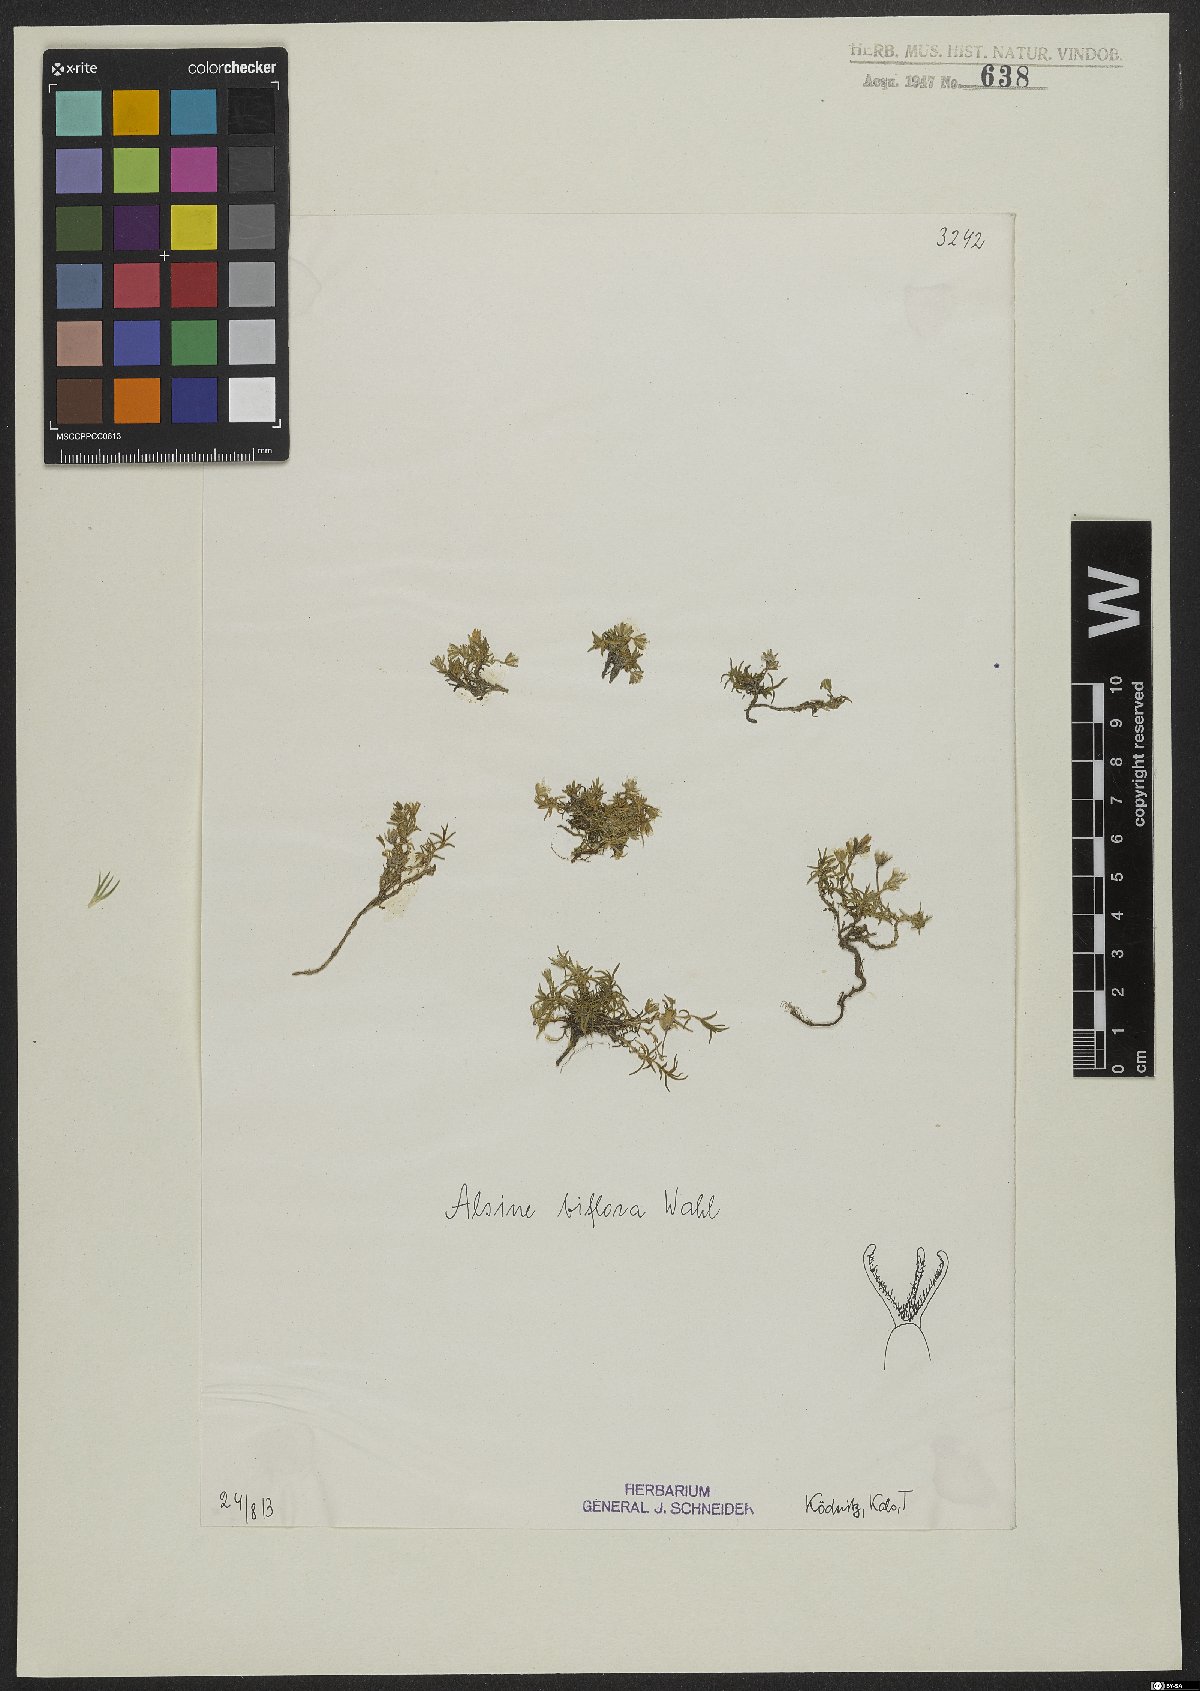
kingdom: Plantae
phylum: Tracheophyta
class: Magnoliopsida
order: Caryophyllales
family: Caryophyllaceae
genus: Cherleria
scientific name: Cherleria biflora
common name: Mountain sandwort
